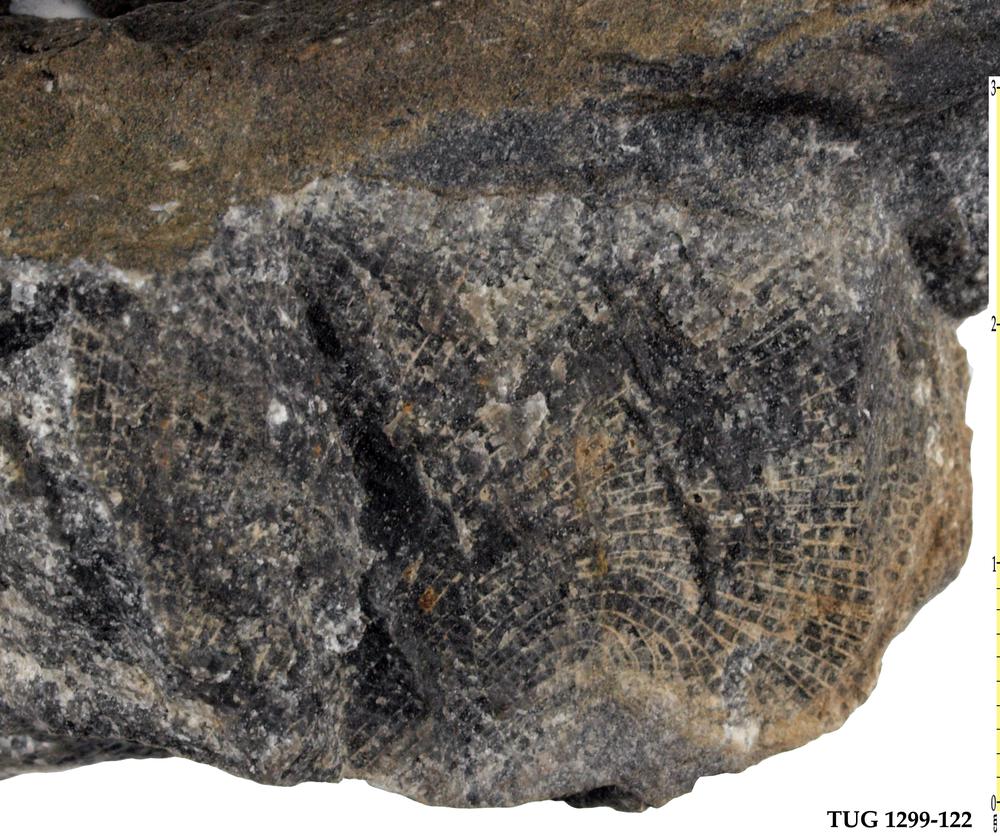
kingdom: Animalia
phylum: Cnidaria
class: Anthozoa
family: Favositidae
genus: Paleofavosites
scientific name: Paleofavosites
